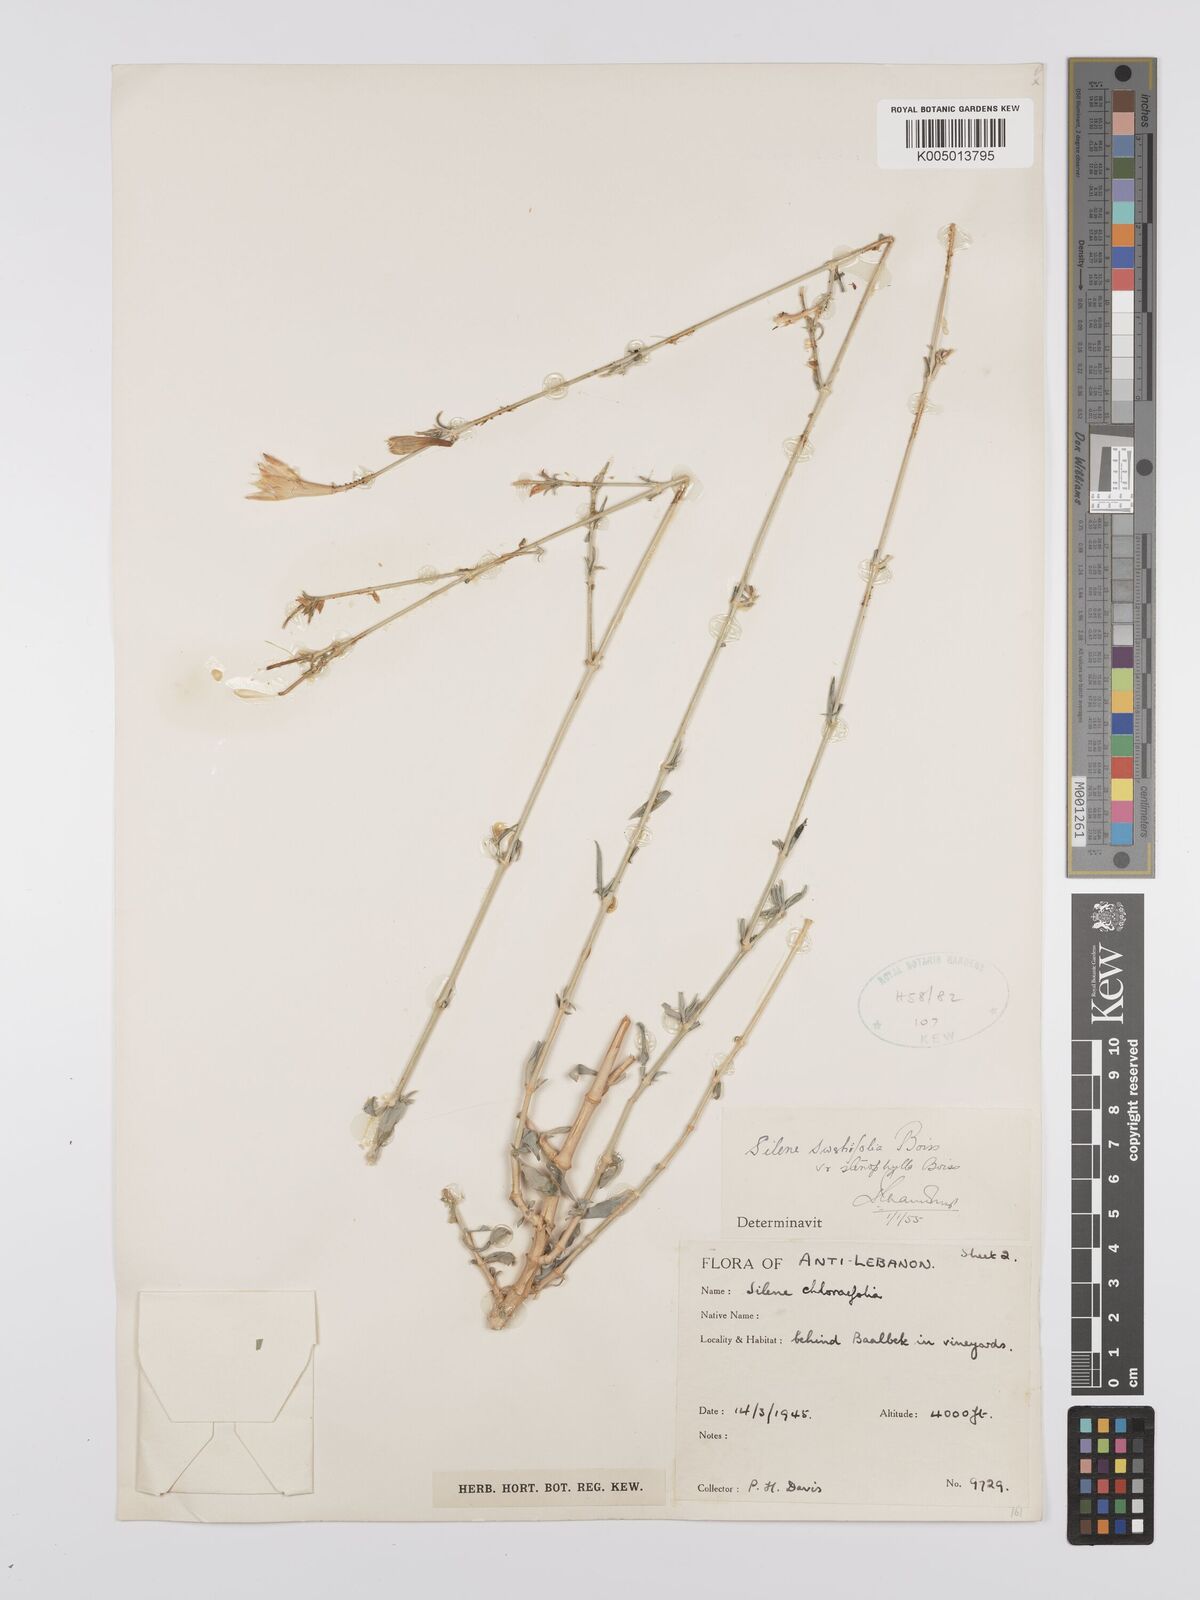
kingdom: Plantae
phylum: Tracheophyta
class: Magnoliopsida
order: Caryophyllales
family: Caryophyllaceae
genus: Silene
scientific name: Silene swertiifolia
